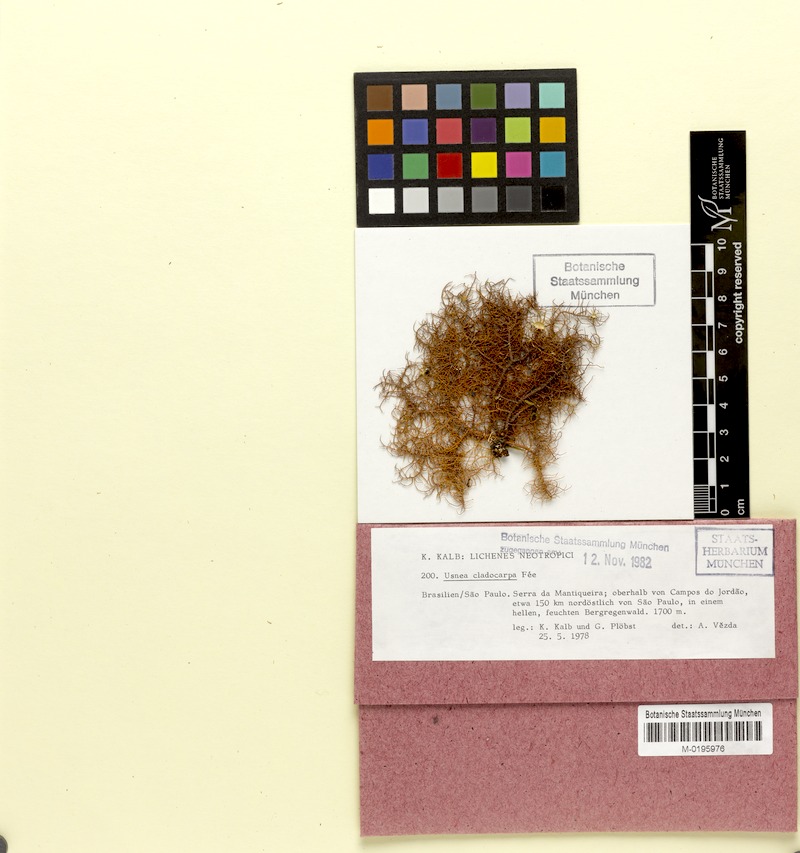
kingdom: Fungi
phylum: Ascomycota
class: Lecanoromycetes
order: Lecanorales
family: Parmeliaceae
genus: Usnea
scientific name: Usnea cladocarpa
